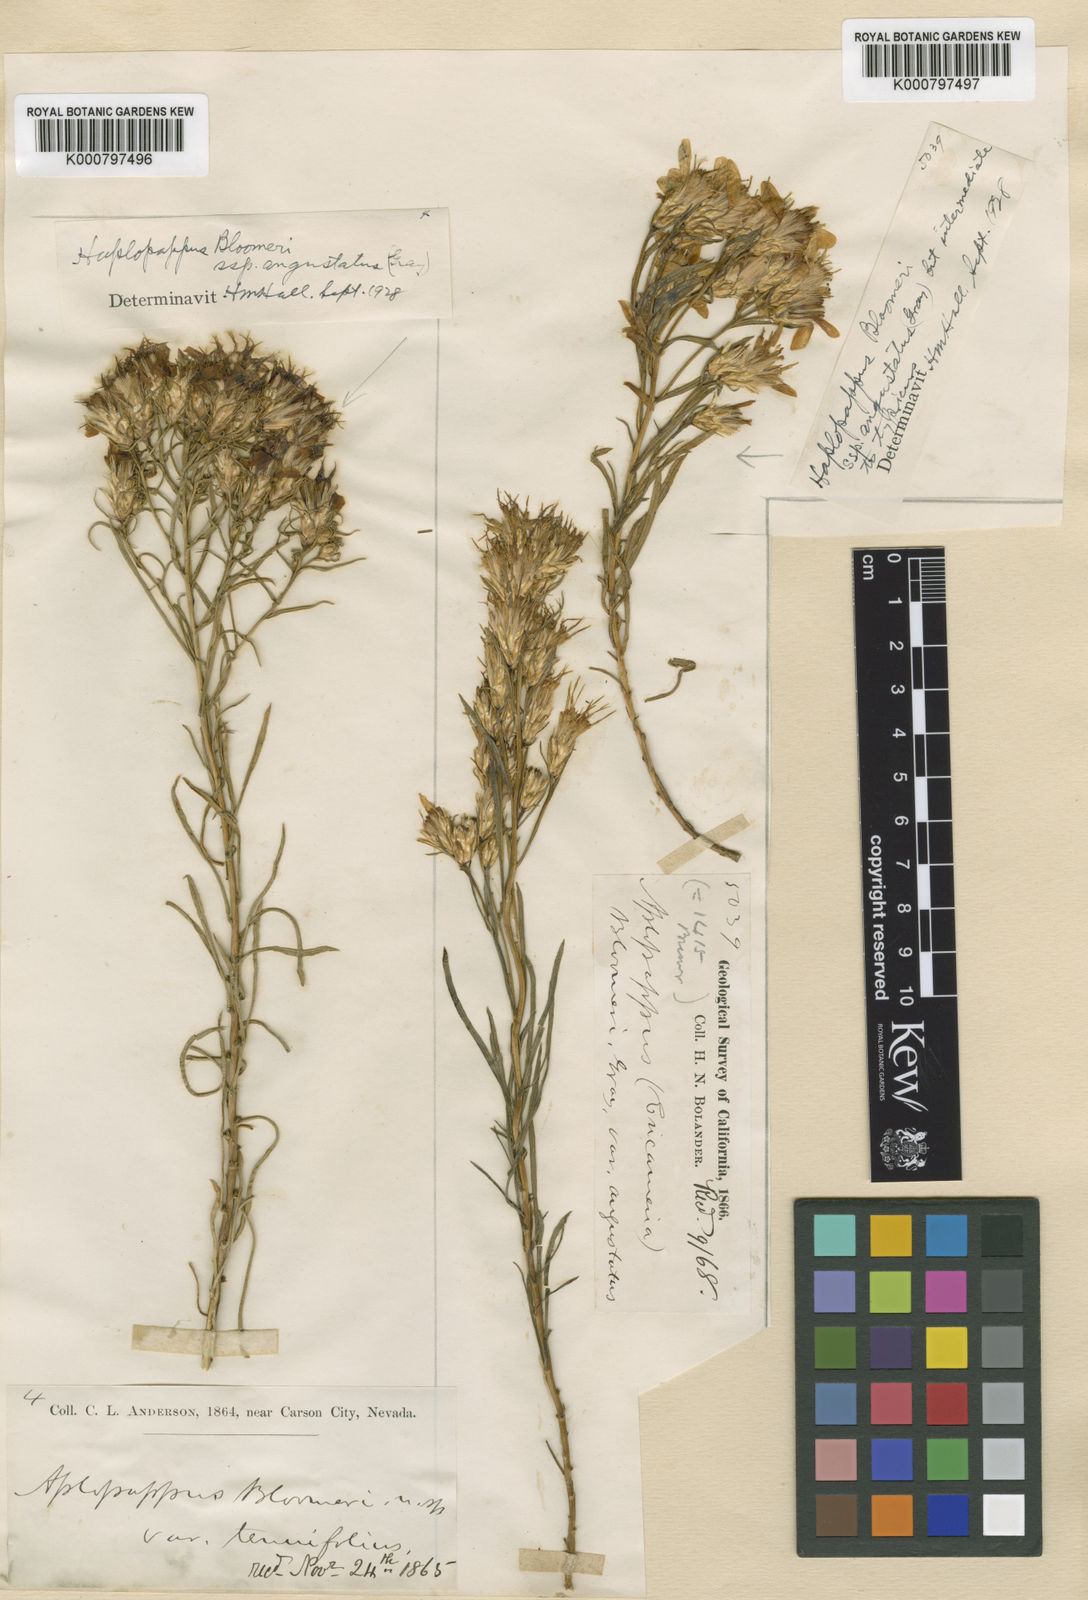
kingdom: Plantae
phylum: Tracheophyta
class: Magnoliopsida
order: Asterales
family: Asteraceae
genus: Ericameria
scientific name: Ericameria bloomeri
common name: Bloomer's goldenbush
